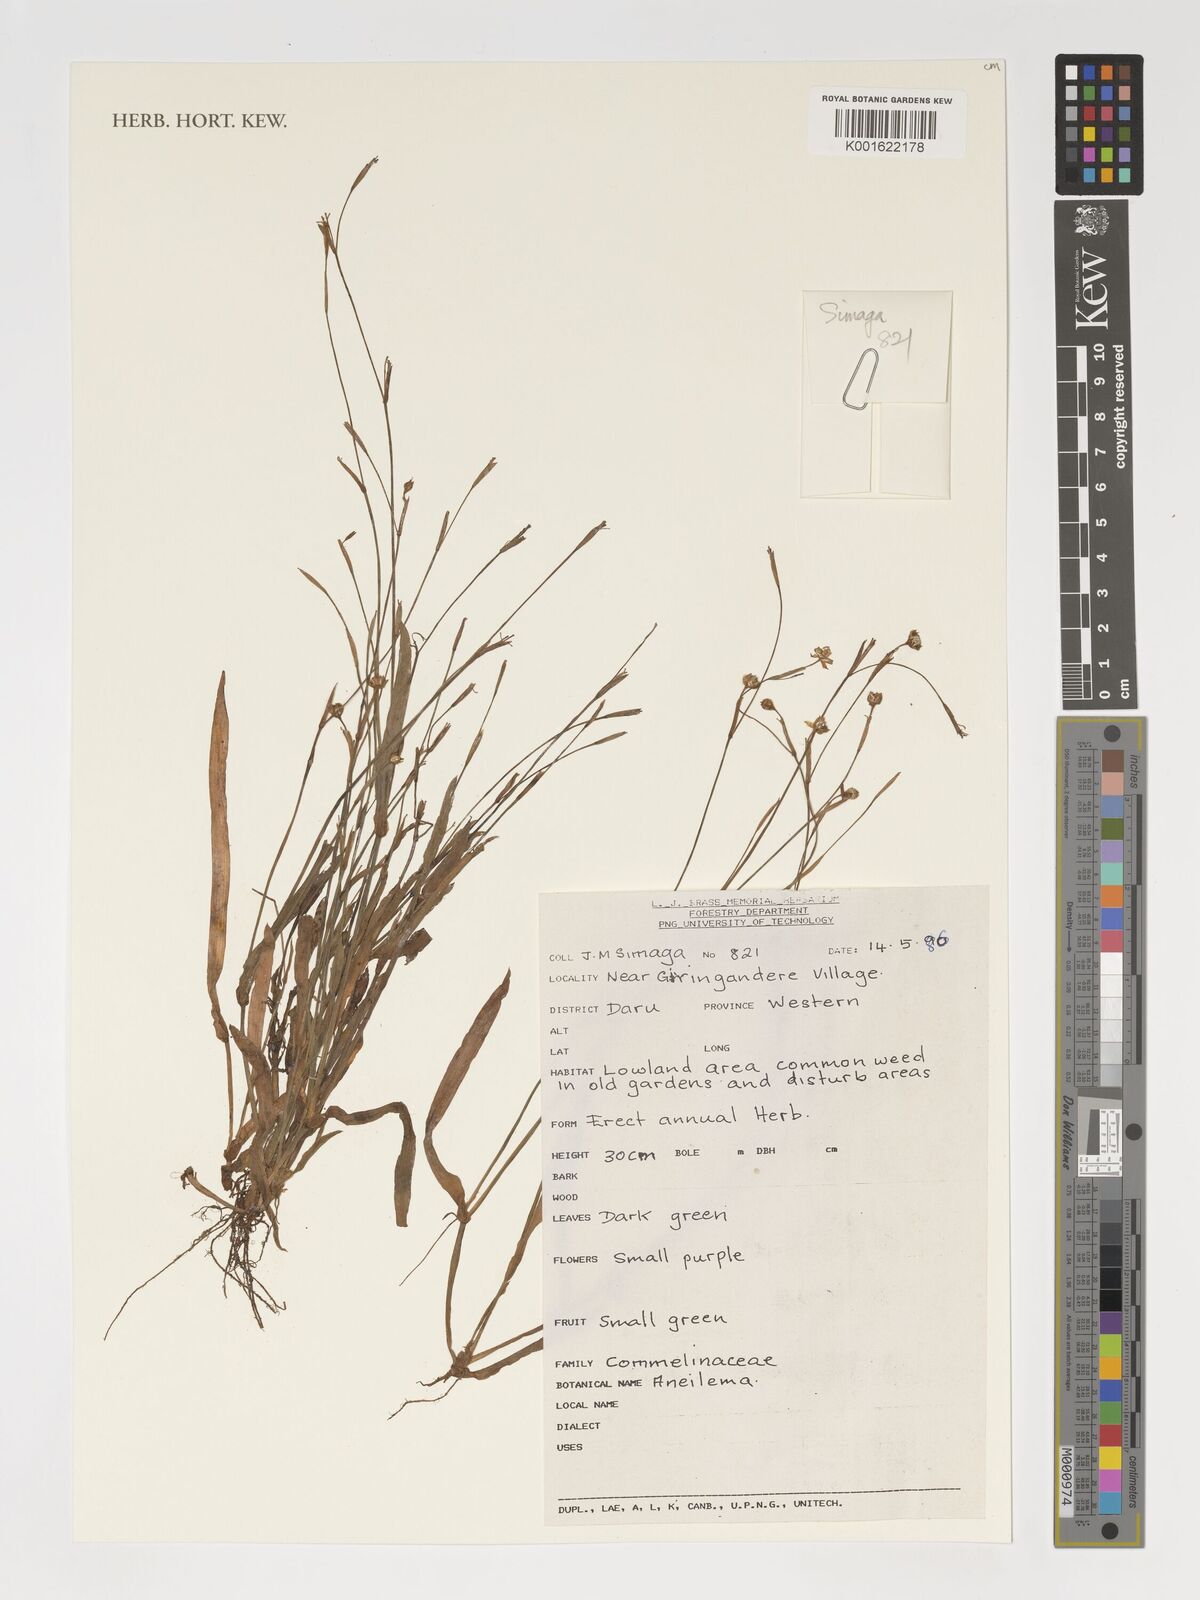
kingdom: Plantae
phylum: Tracheophyta
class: Liliopsida
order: Commelinales
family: Commelinaceae
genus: Aneilema
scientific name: Aneilema
